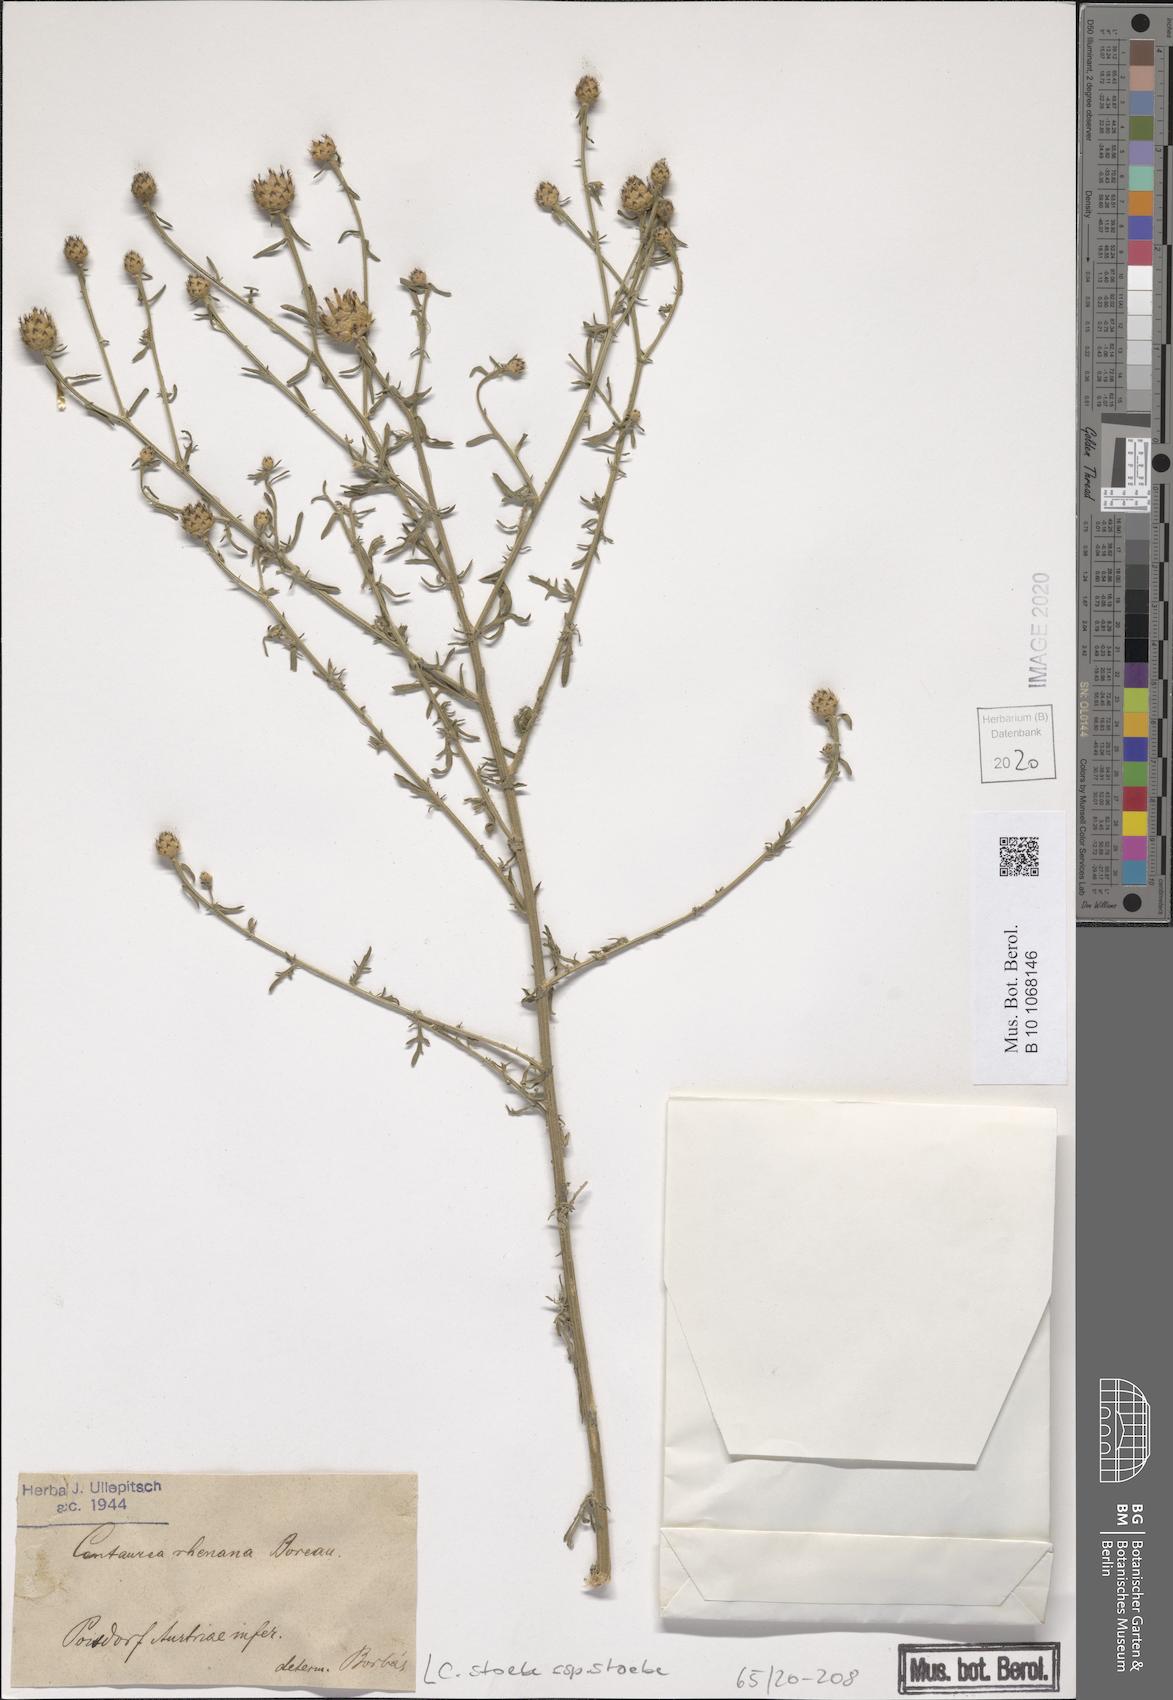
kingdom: Plantae
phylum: Tracheophyta
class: Magnoliopsida
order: Asterales
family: Asteraceae
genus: Centaurea
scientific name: Centaurea stoebe
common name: Spotted knapweed
